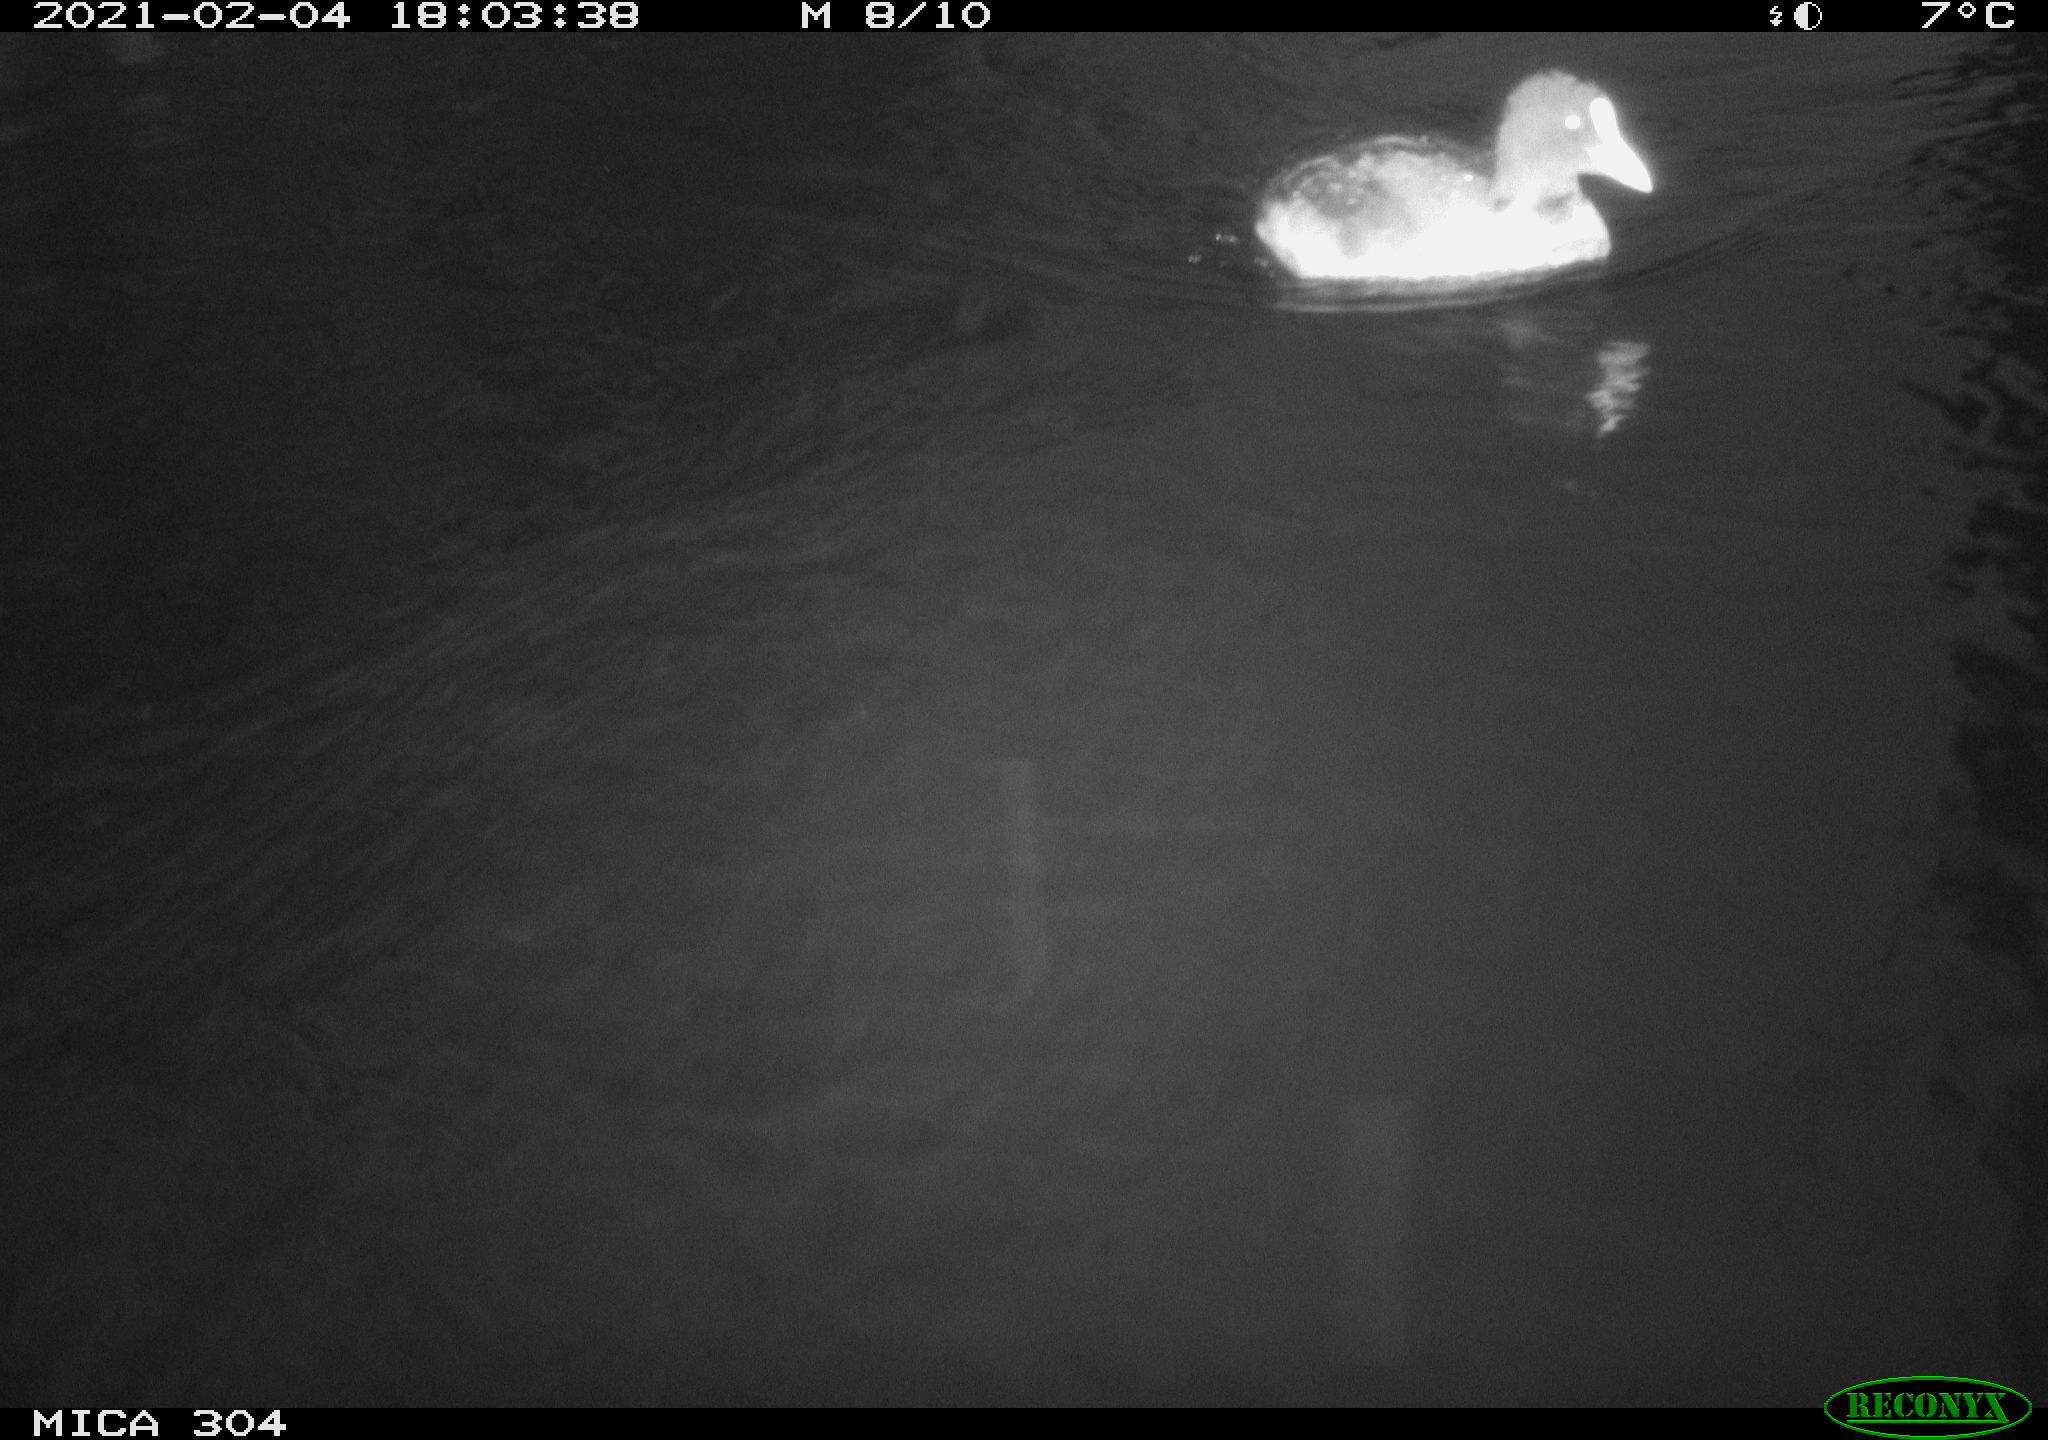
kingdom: Animalia
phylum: Chordata
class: Aves
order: Gruiformes
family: Rallidae
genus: Fulica
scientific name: Fulica atra
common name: Eurasian coot
